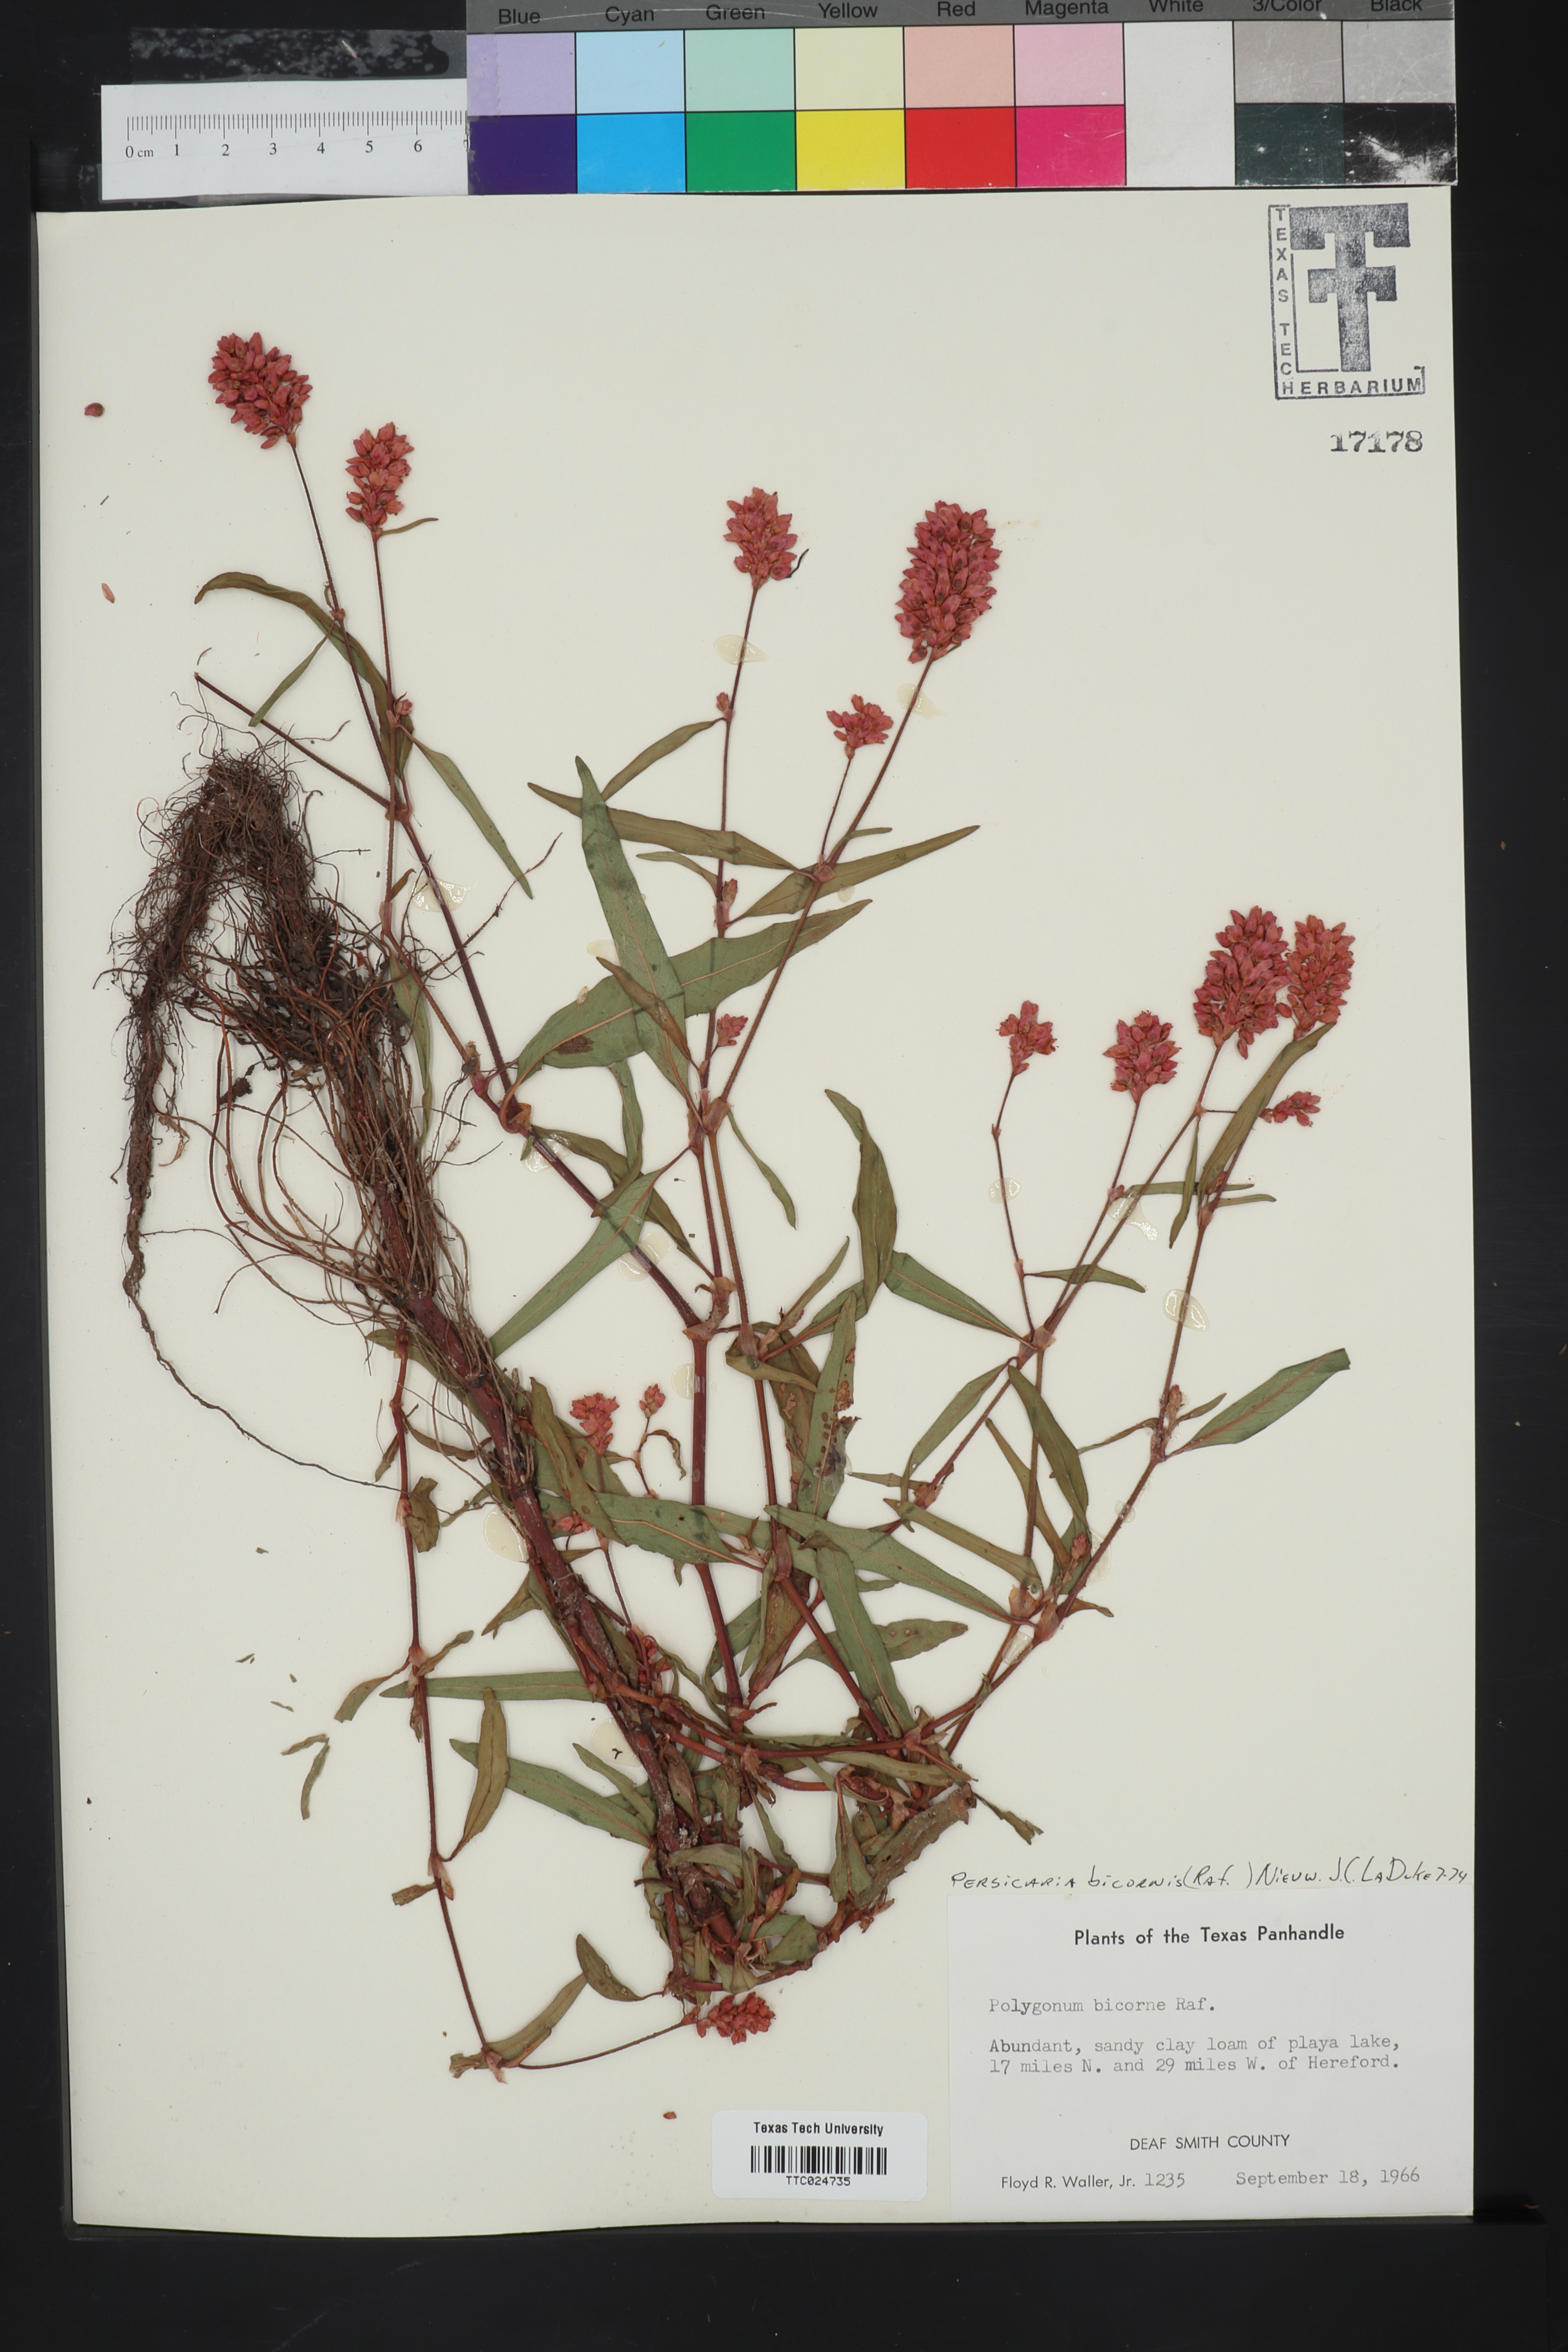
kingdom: Plantae
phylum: Tracheophyta
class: Magnoliopsida
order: Caryophyllales
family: Polygonaceae
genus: Persicaria
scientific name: Persicaria bicornis
